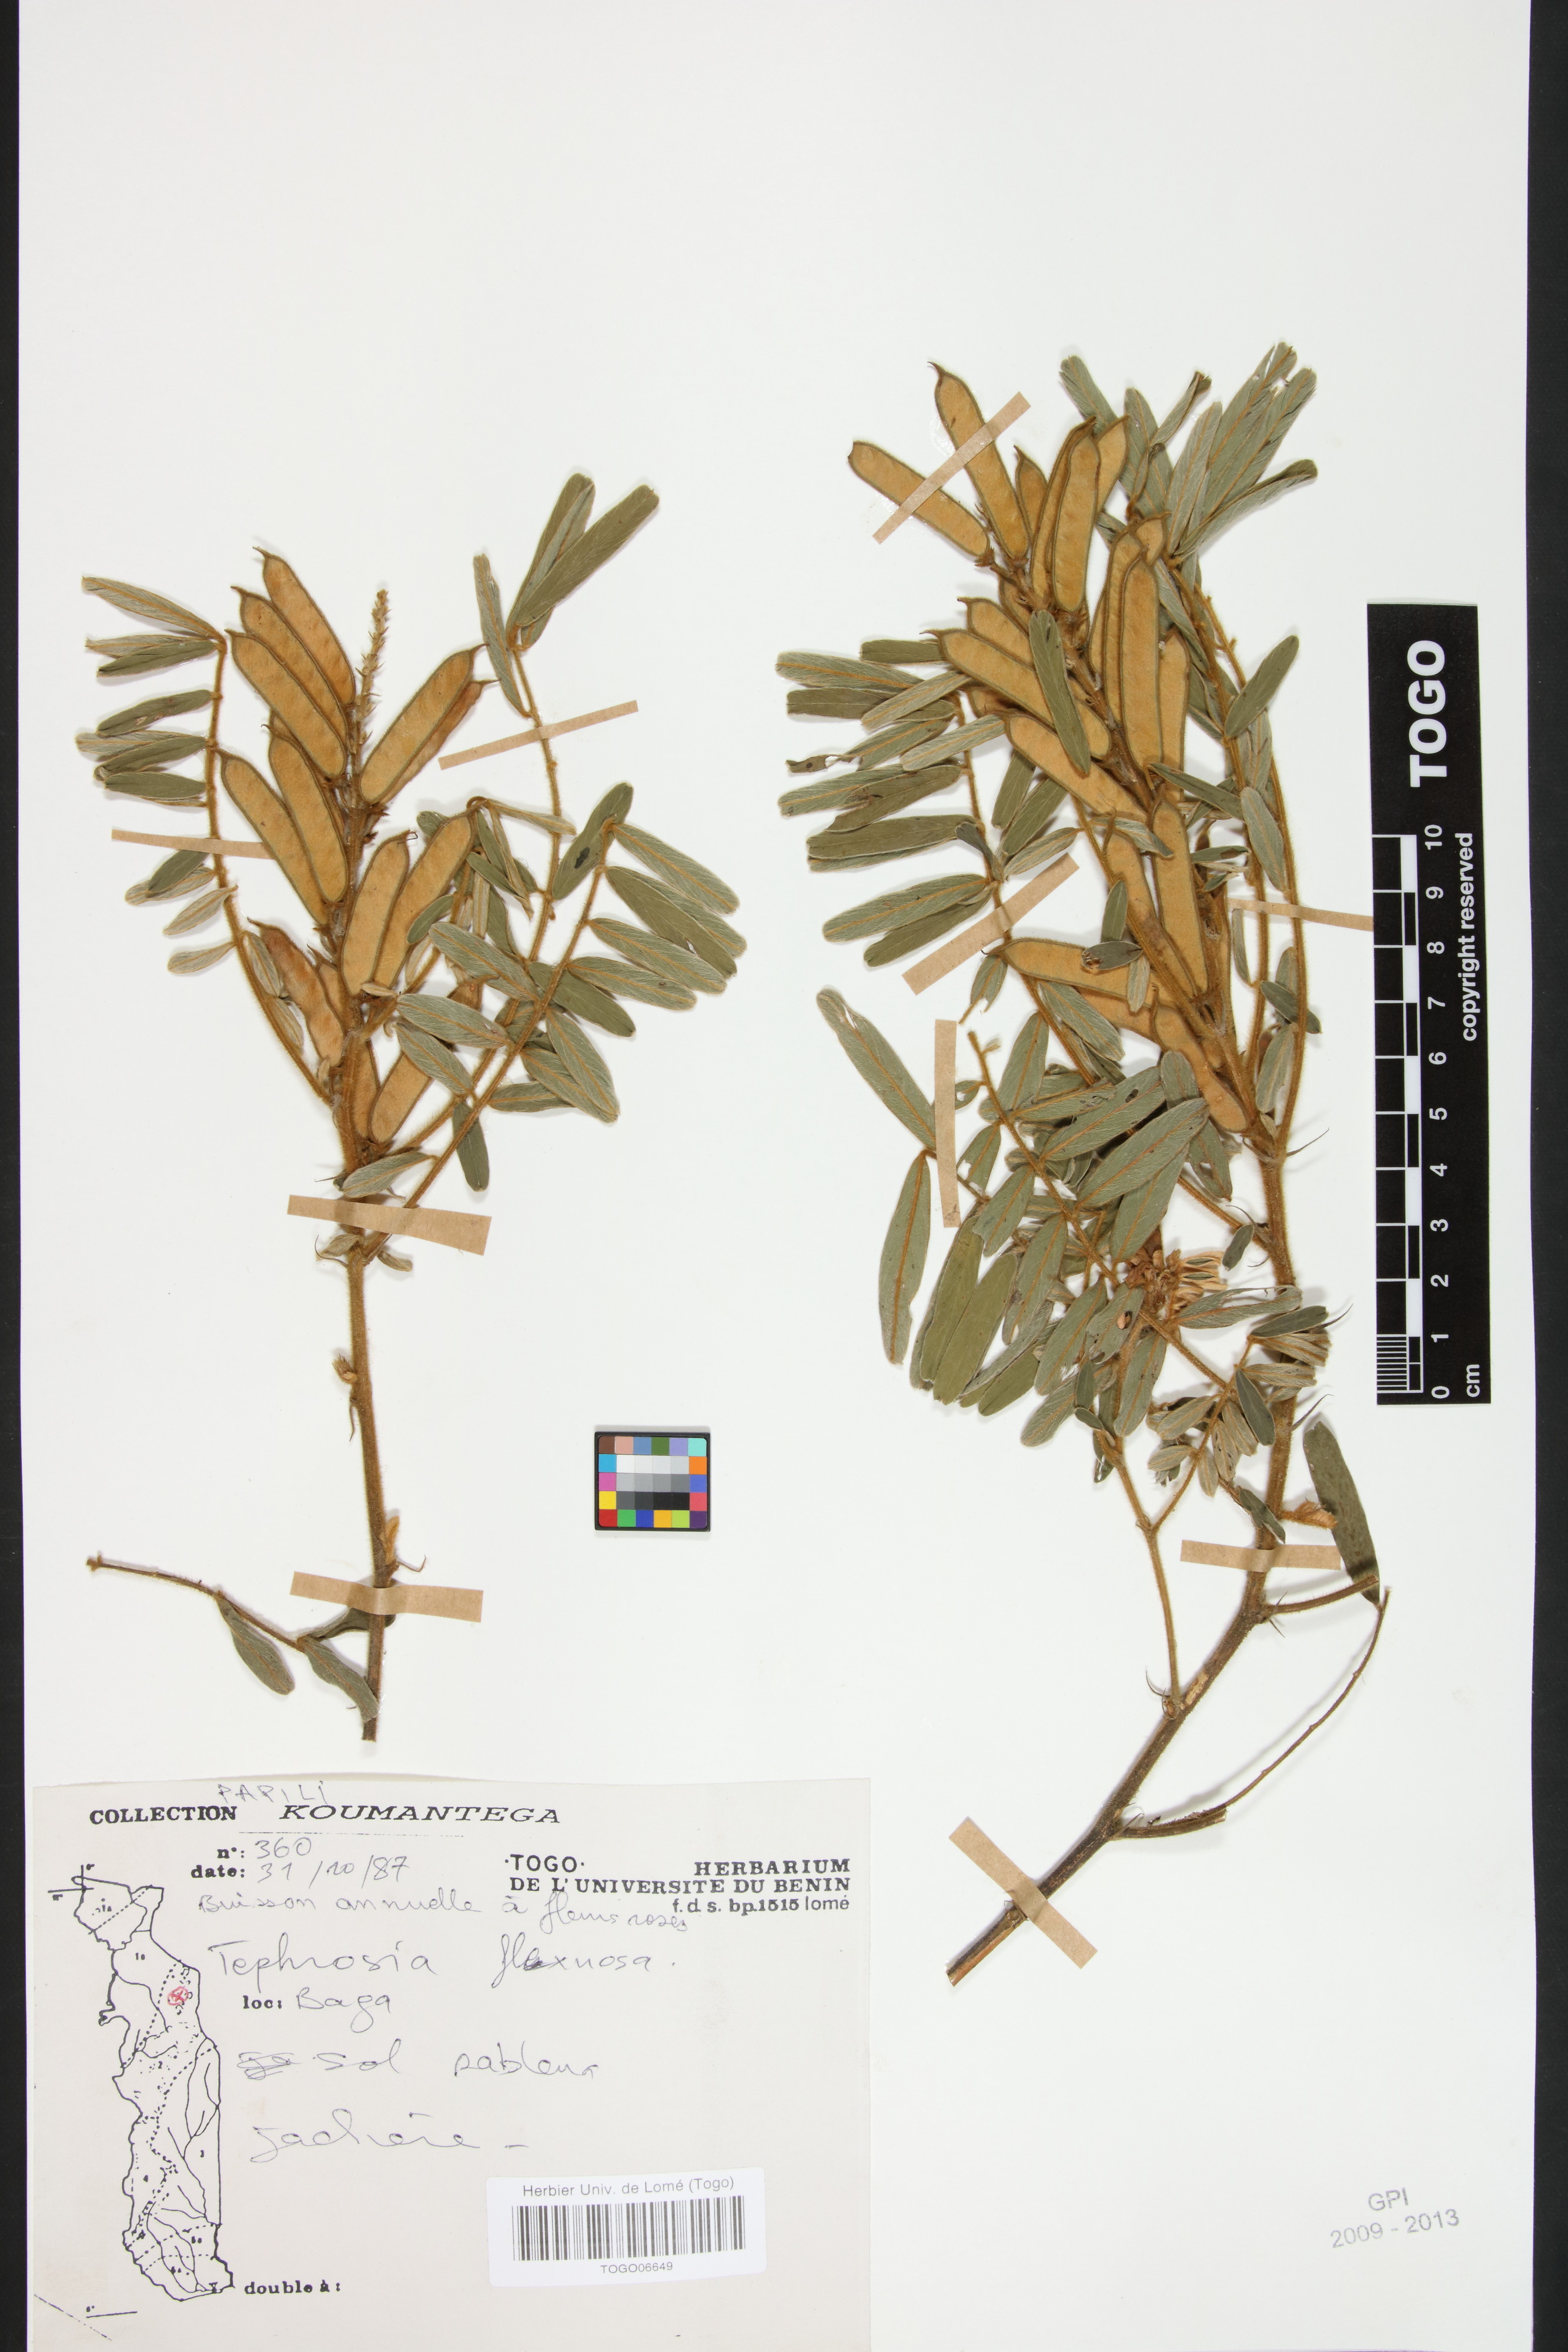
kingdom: Plantae
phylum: Tracheophyta
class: Magnoliopsida
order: Fabales
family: Fabaceae
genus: Tephrosia
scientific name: Tephrosia flexuosa
